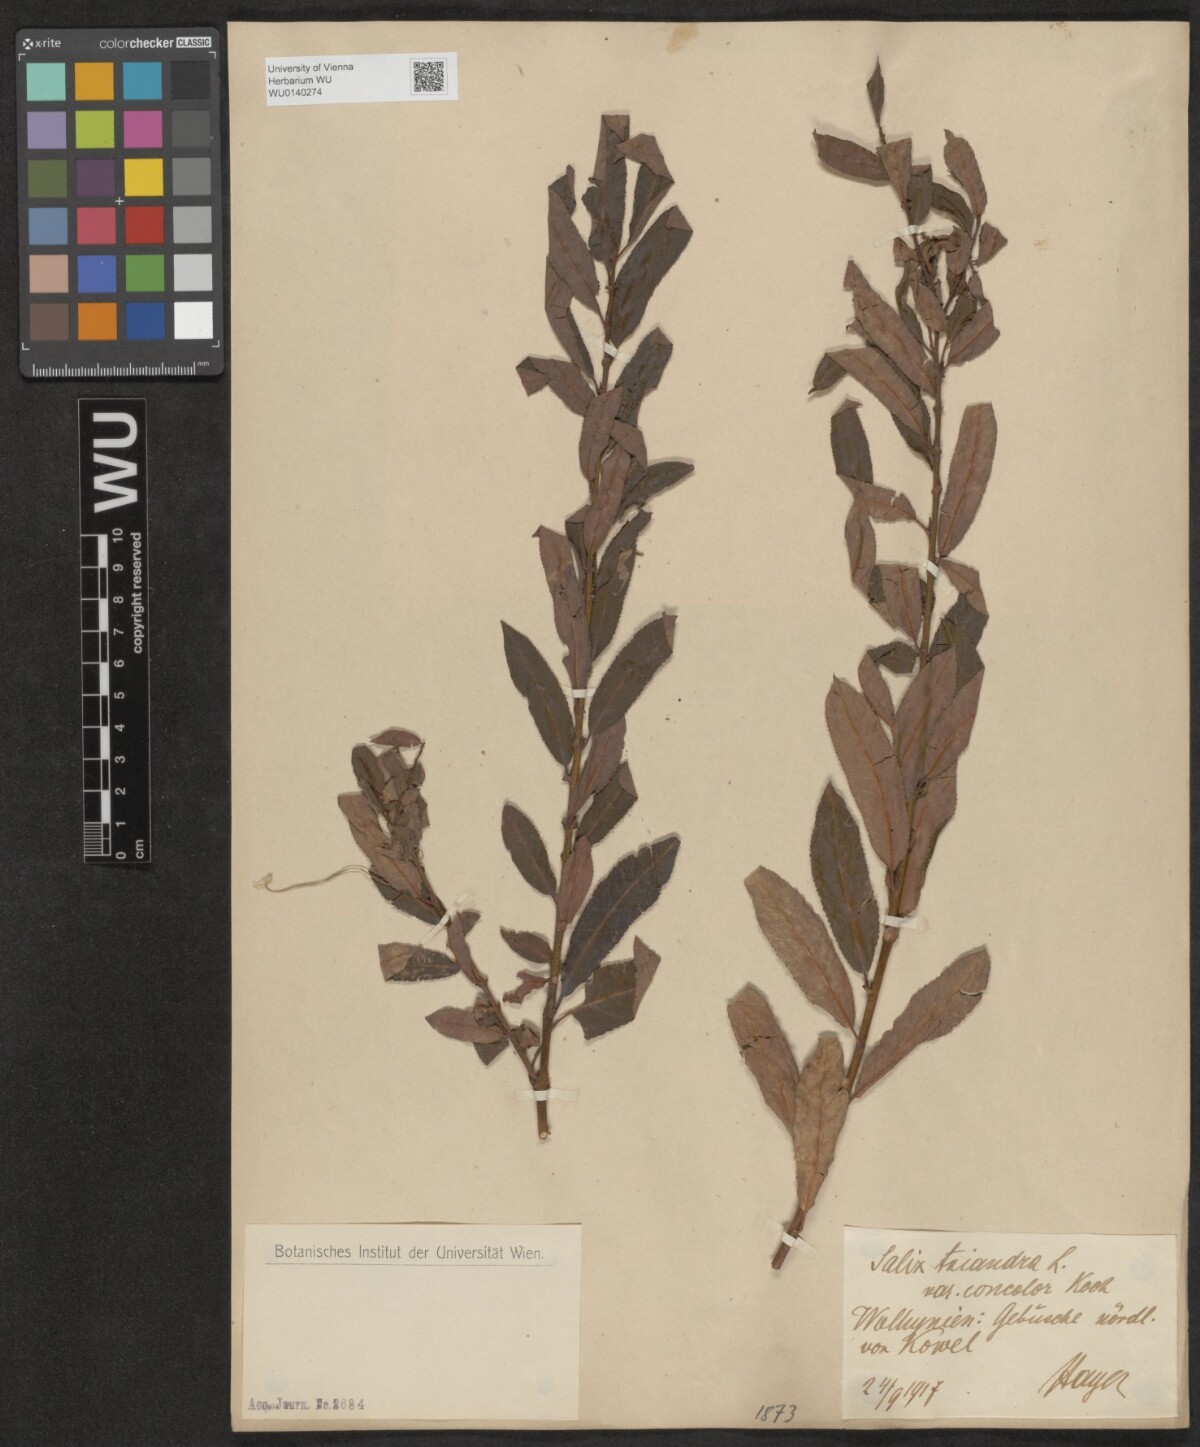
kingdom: Plantae
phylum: Tracheophyta
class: Magnoliopsida
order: Malpighiales
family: Salicaceae
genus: Salix
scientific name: Salix triandra
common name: Almond willow
